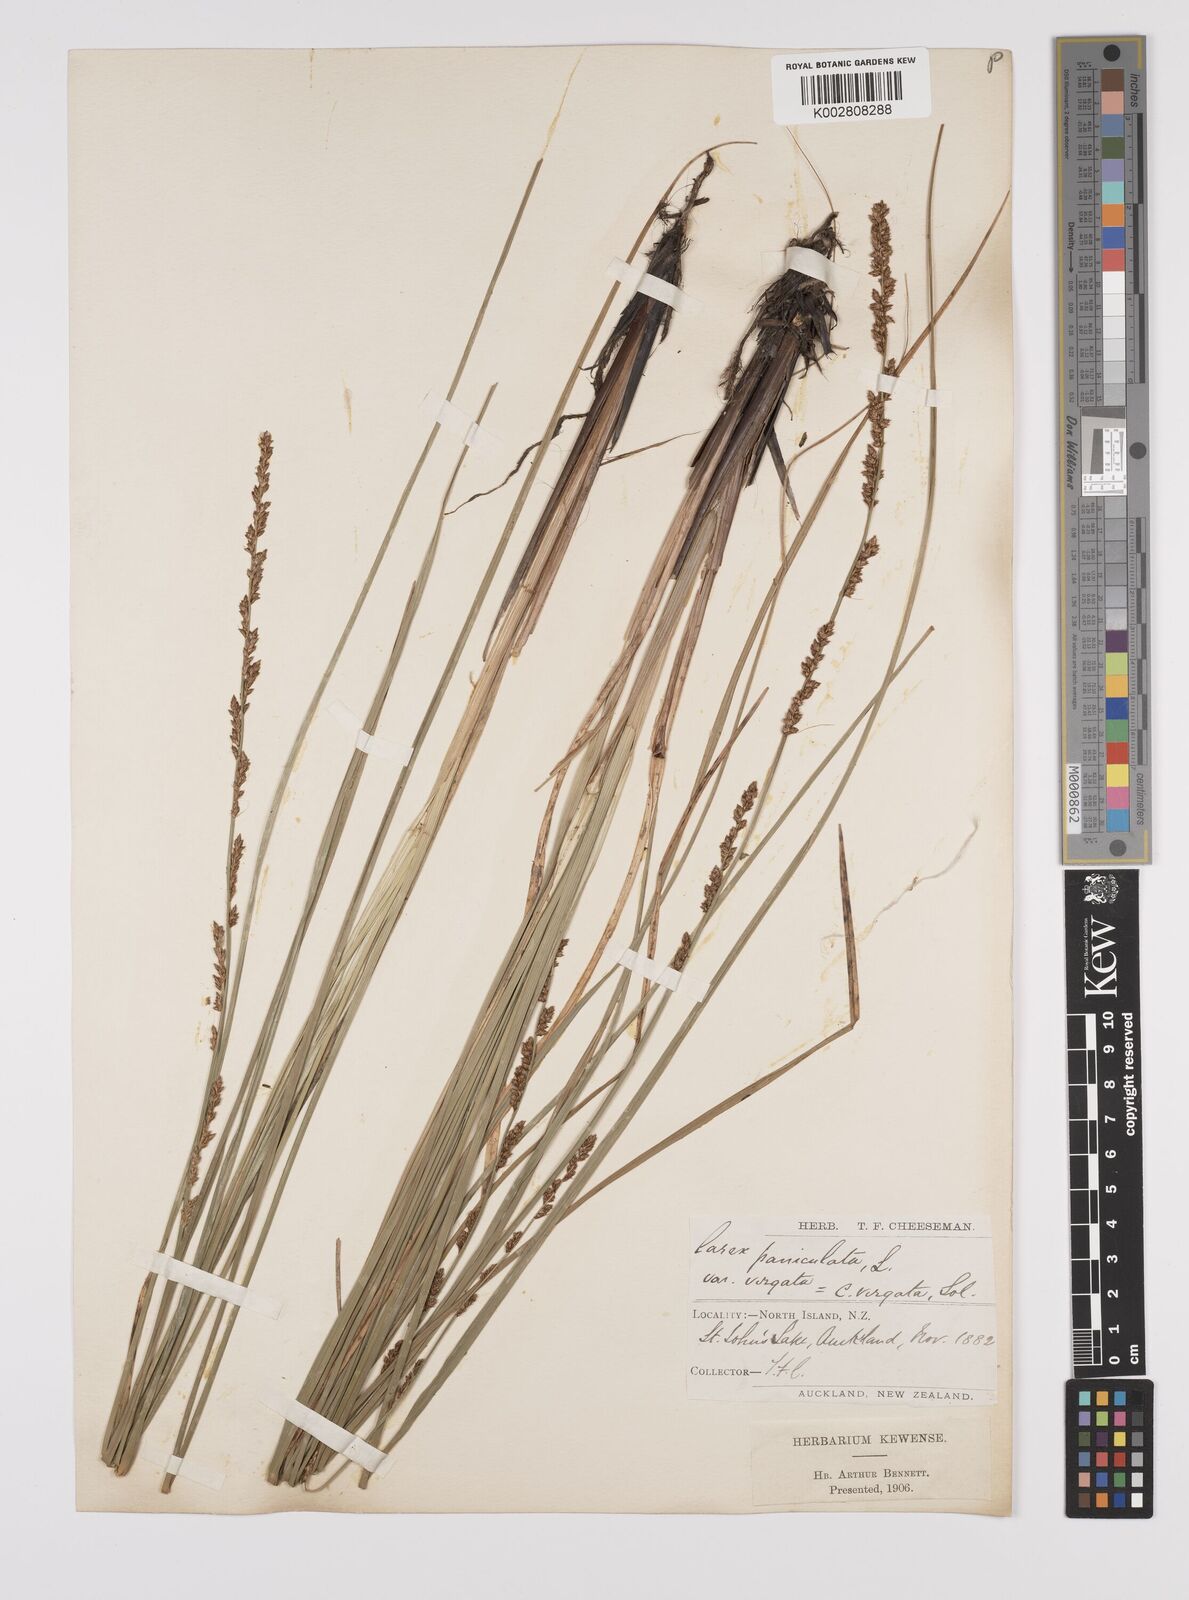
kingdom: Plantae
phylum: Tracheophyta
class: Liliopsida
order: Poales
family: Cyperaceae
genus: Carex
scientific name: Carex appressa
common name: Tussock sedge
